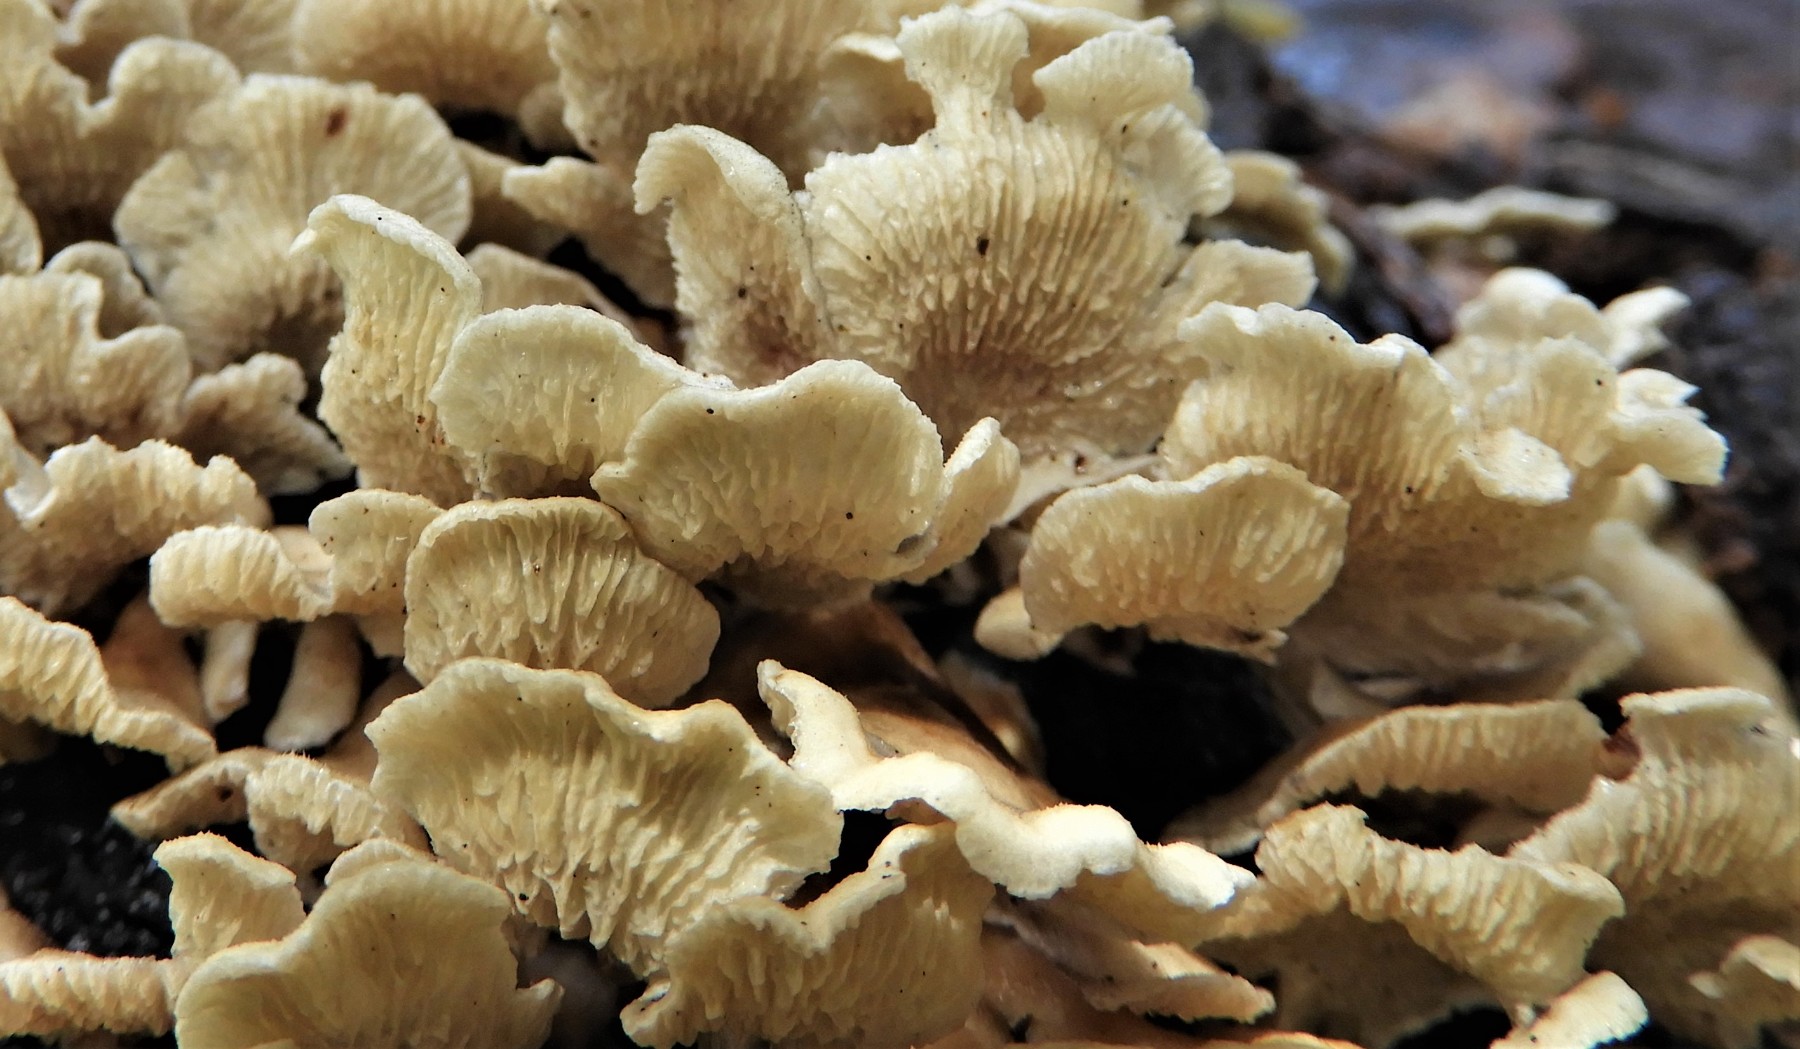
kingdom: Fungi
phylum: Basidiomycota
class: Agaricomycetes
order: Amylocorticiales
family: Amylocorticiaceae
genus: Plicaturopsis
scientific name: Plicaturopsis crispa
